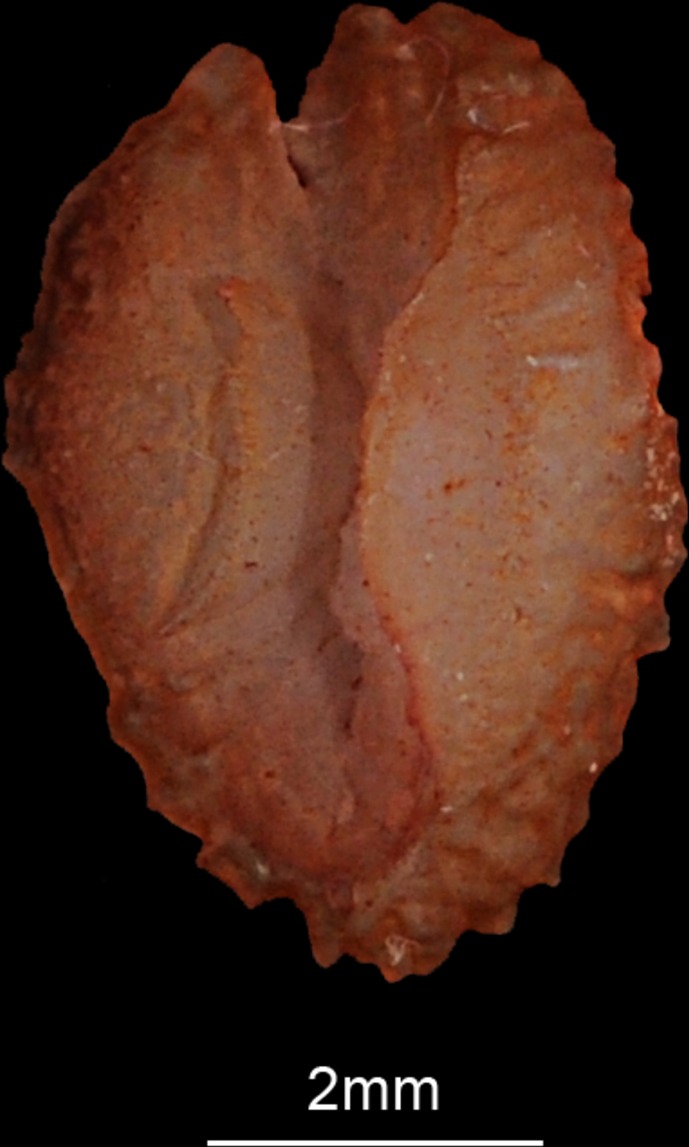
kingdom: Animalia
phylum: Chordata
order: Perciformes
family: Scaridae
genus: Chlorurus
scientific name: Chlorurus sordidus
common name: Bullethead parrotfish
